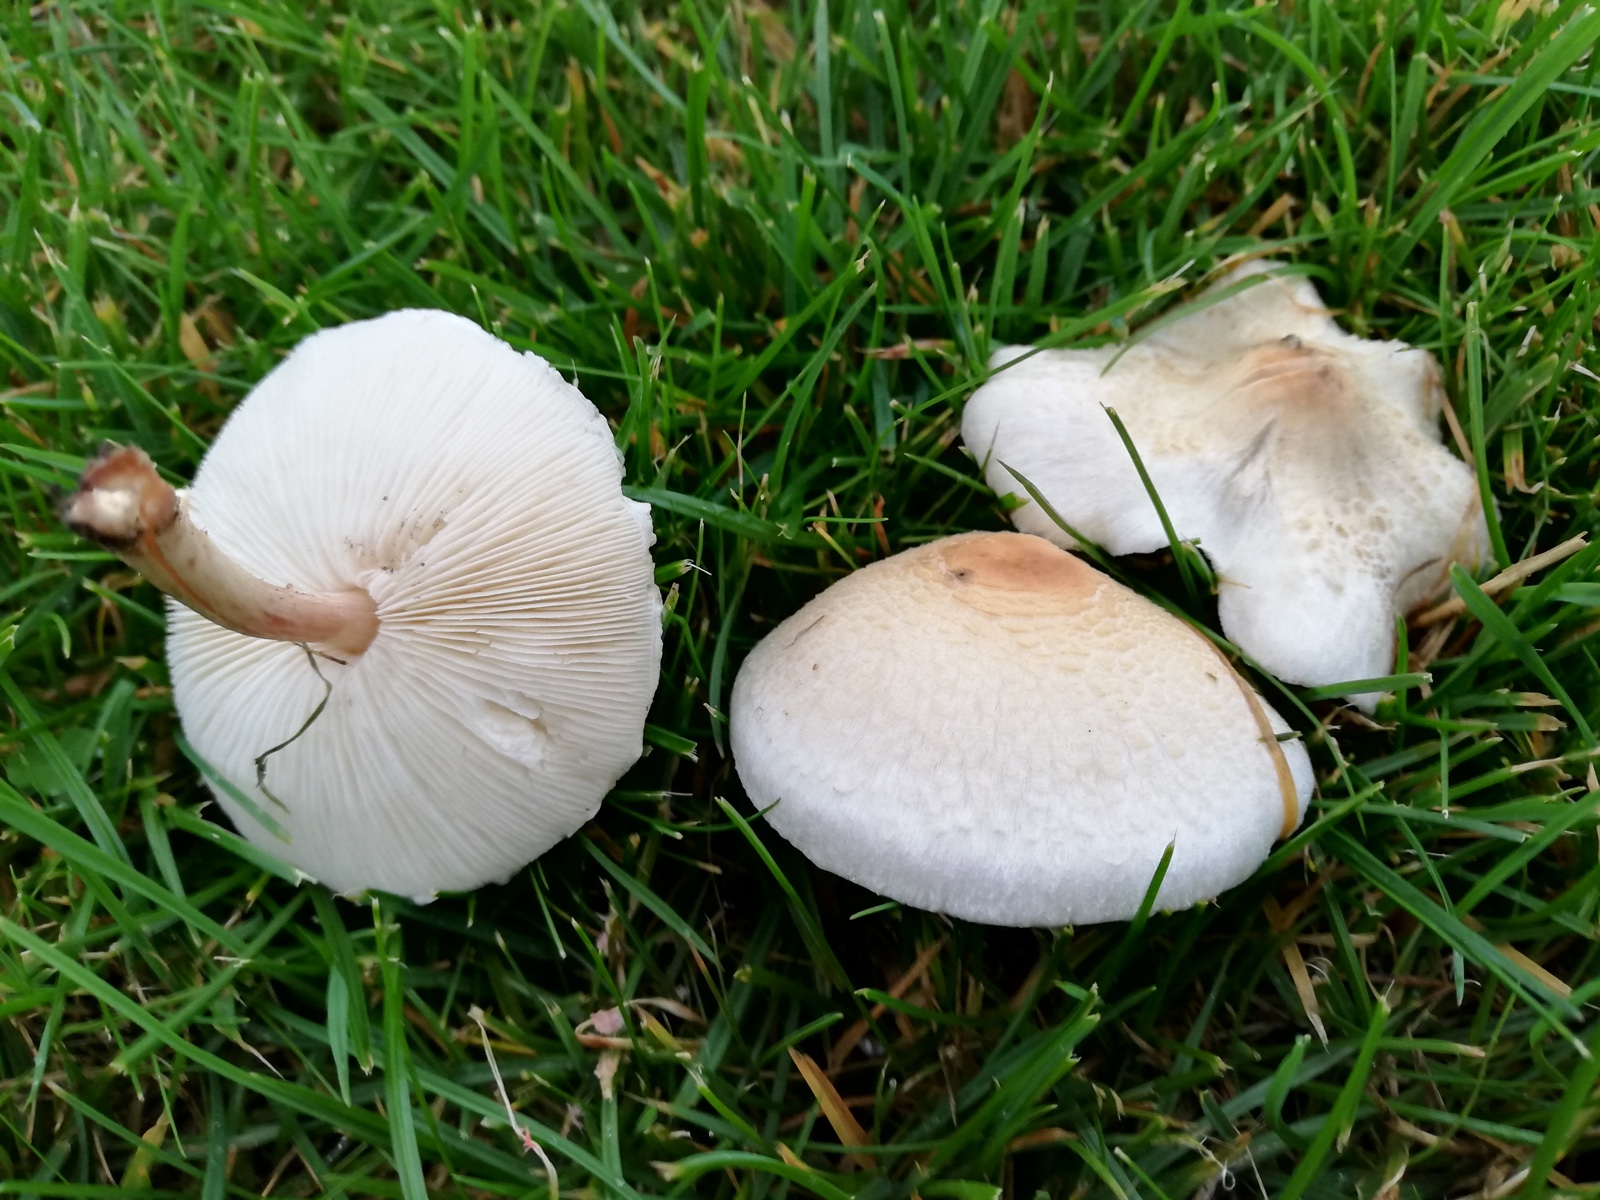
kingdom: Fungi
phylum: Basidiomycota
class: Agaricomycetes
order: Agaricales
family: Agaricaceae
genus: Lepiota
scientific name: Lepiota cristata
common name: stinkende parasolhat
